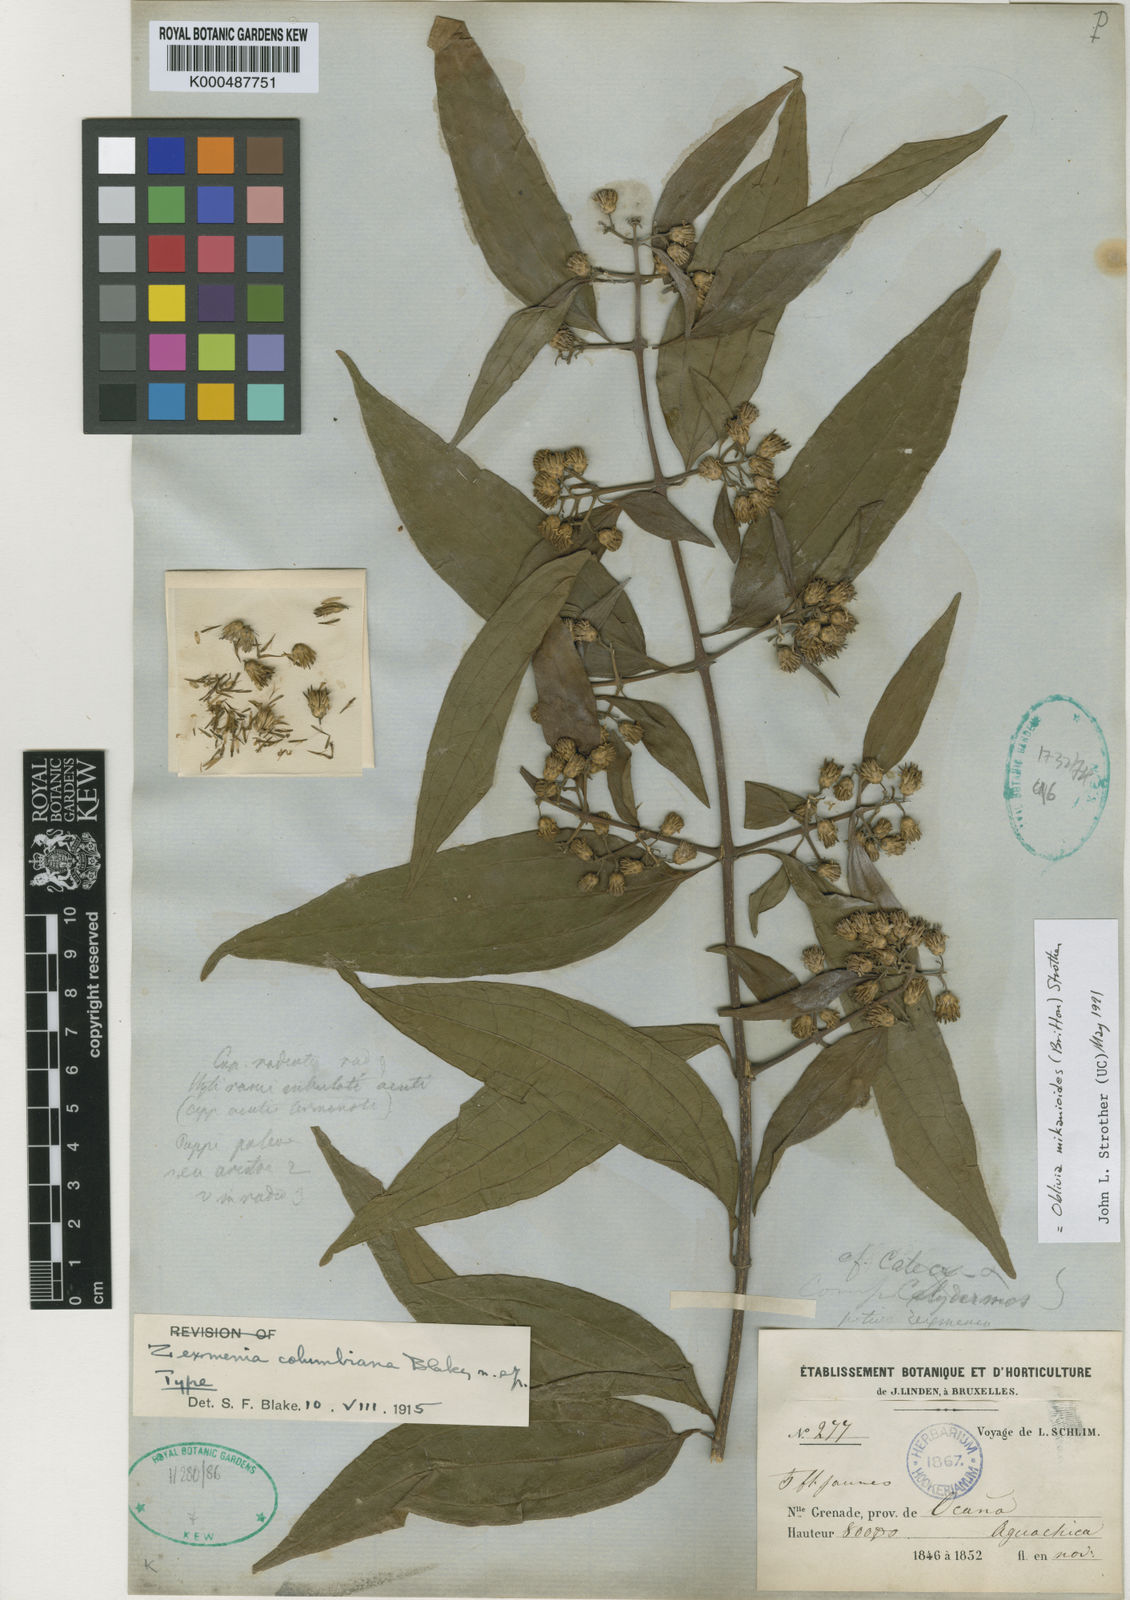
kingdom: Plantae
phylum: Tracheophyta
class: Magnoliopsida
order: Asterales
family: Asteraceae
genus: Oblivia
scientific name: Oblivia mikanioides
